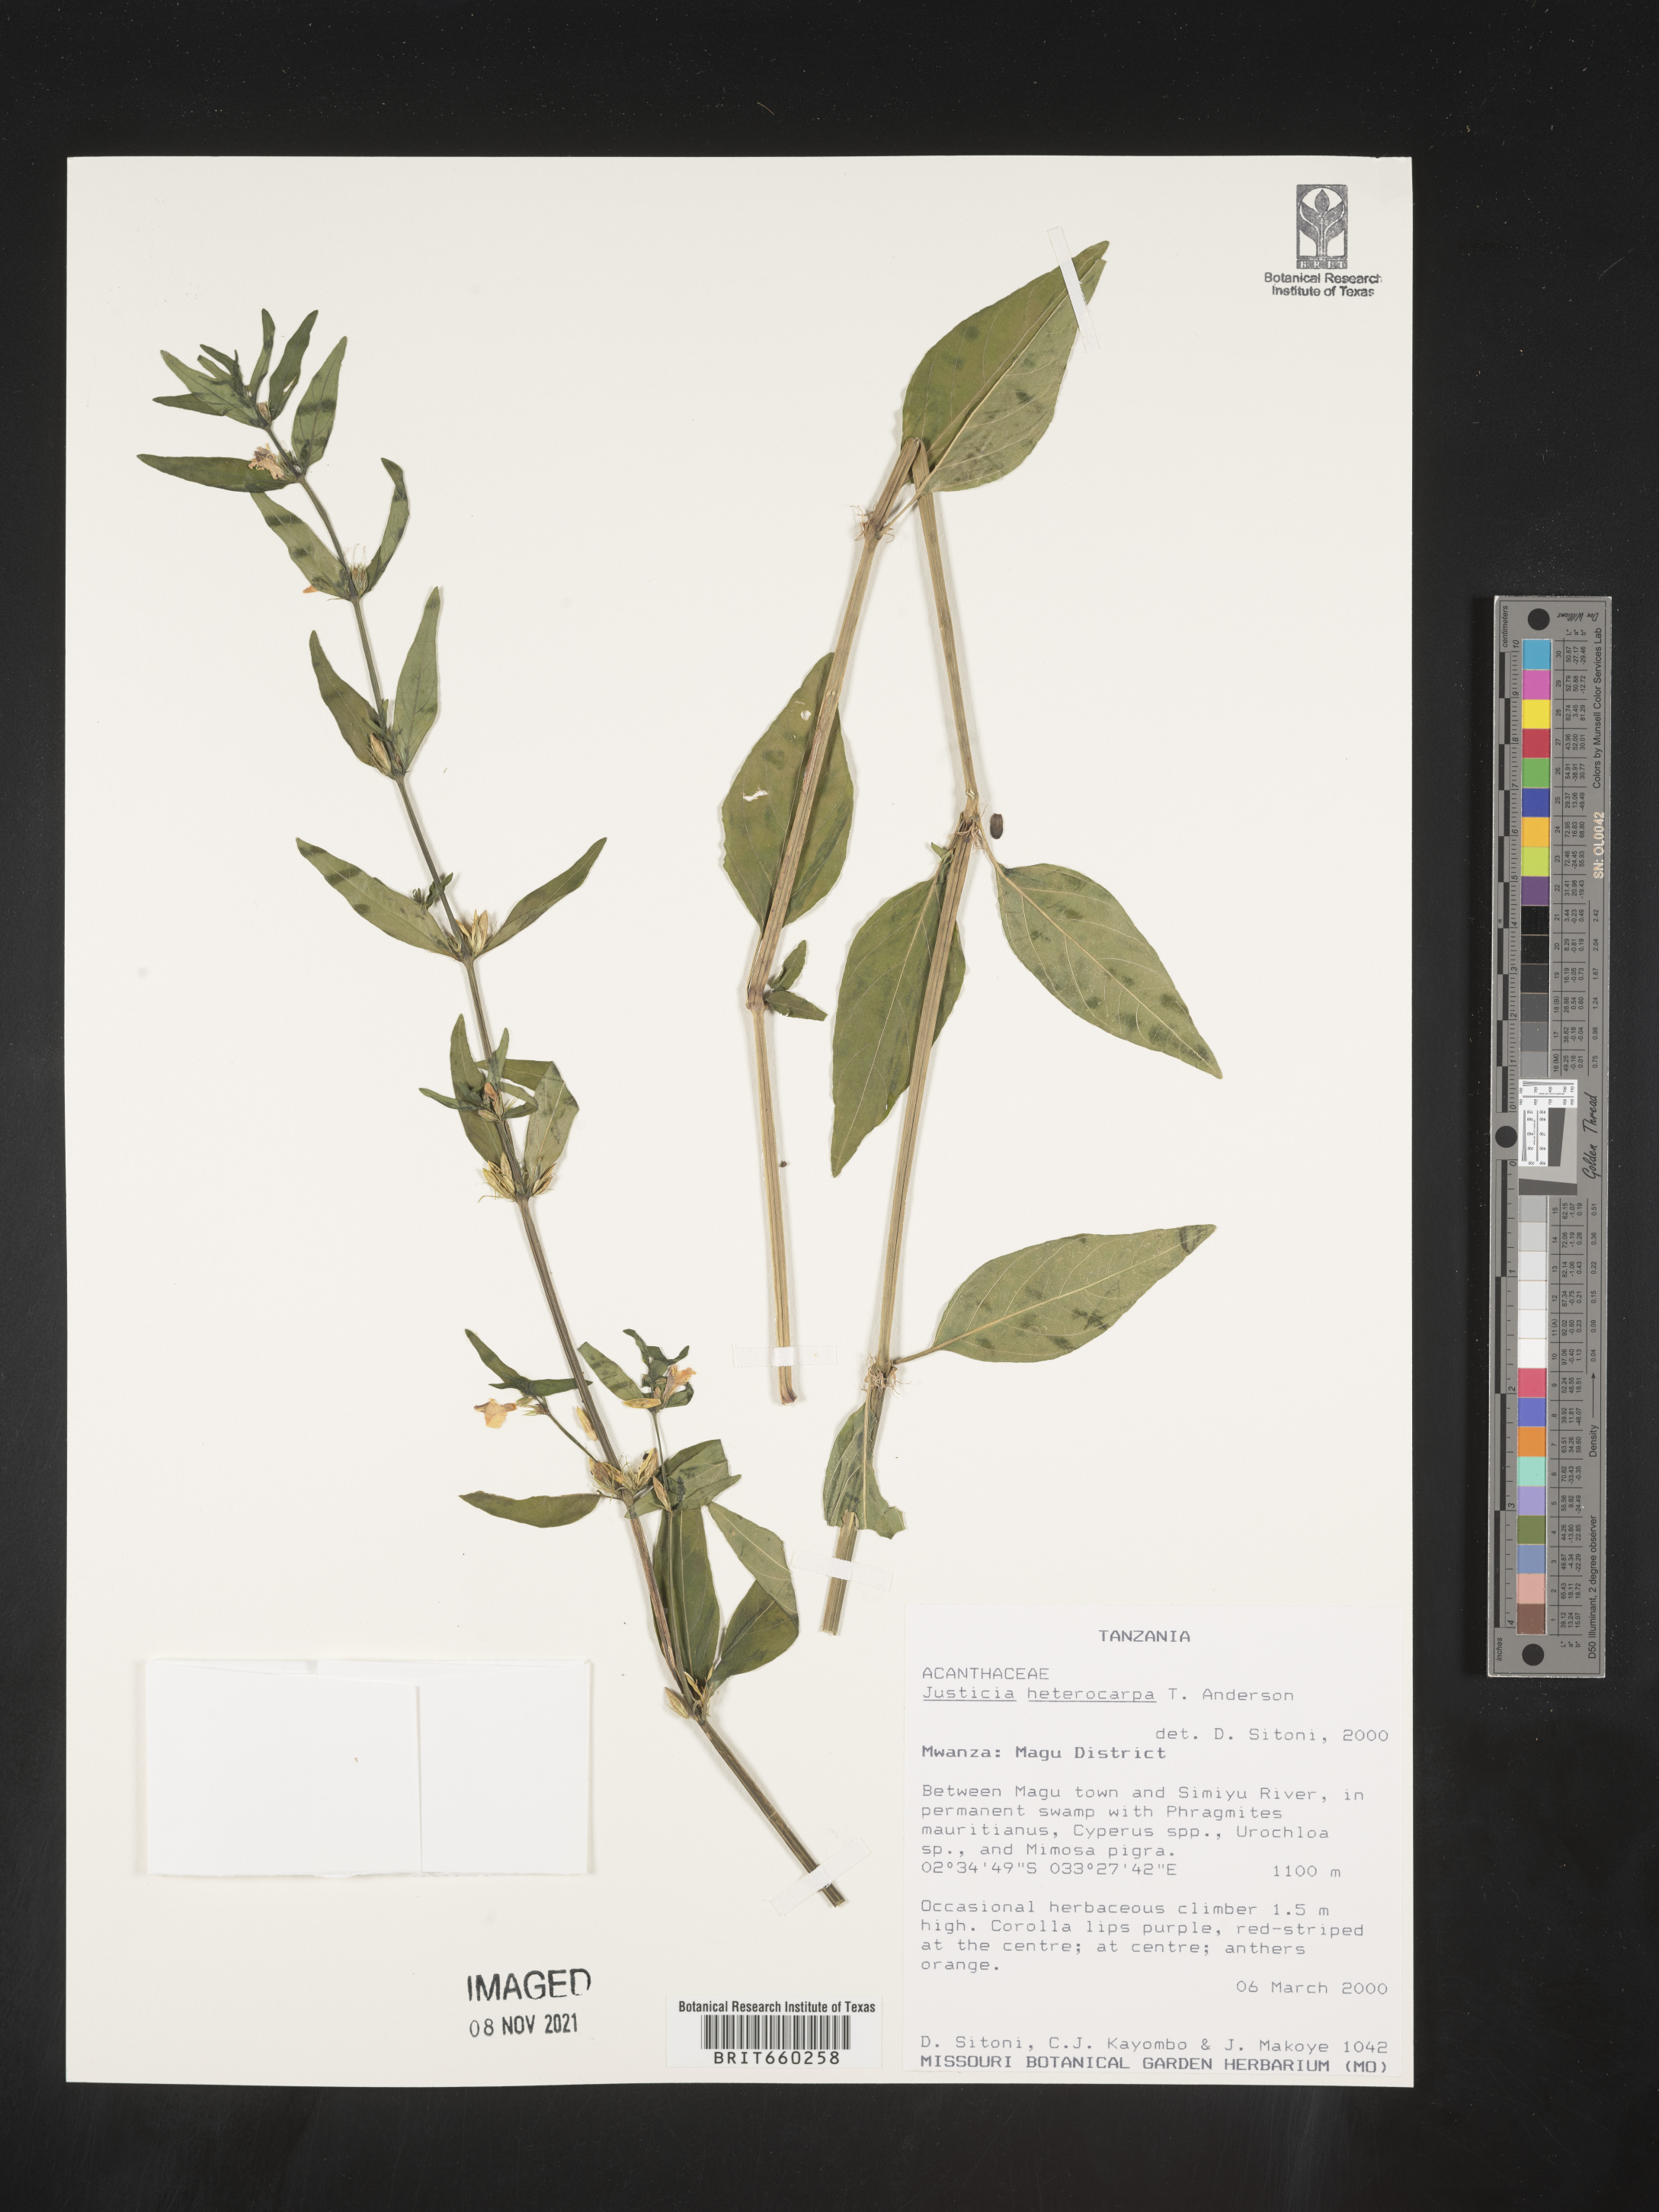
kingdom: Plantae
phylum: Tracheophyta
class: Magnoliopsida
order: Lamiales
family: Acanthaceae
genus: Justicia
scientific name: Justicia
